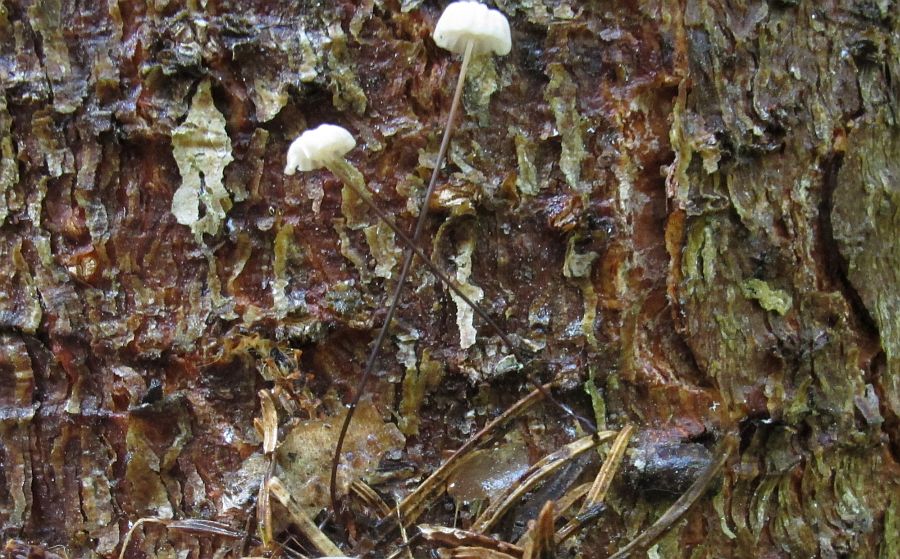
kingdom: Fungi
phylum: Basidiomycota
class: Agaricomycetes
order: Agaricales
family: Omphalotaceae
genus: Paragymnopus
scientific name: Paragymnopus perforans
